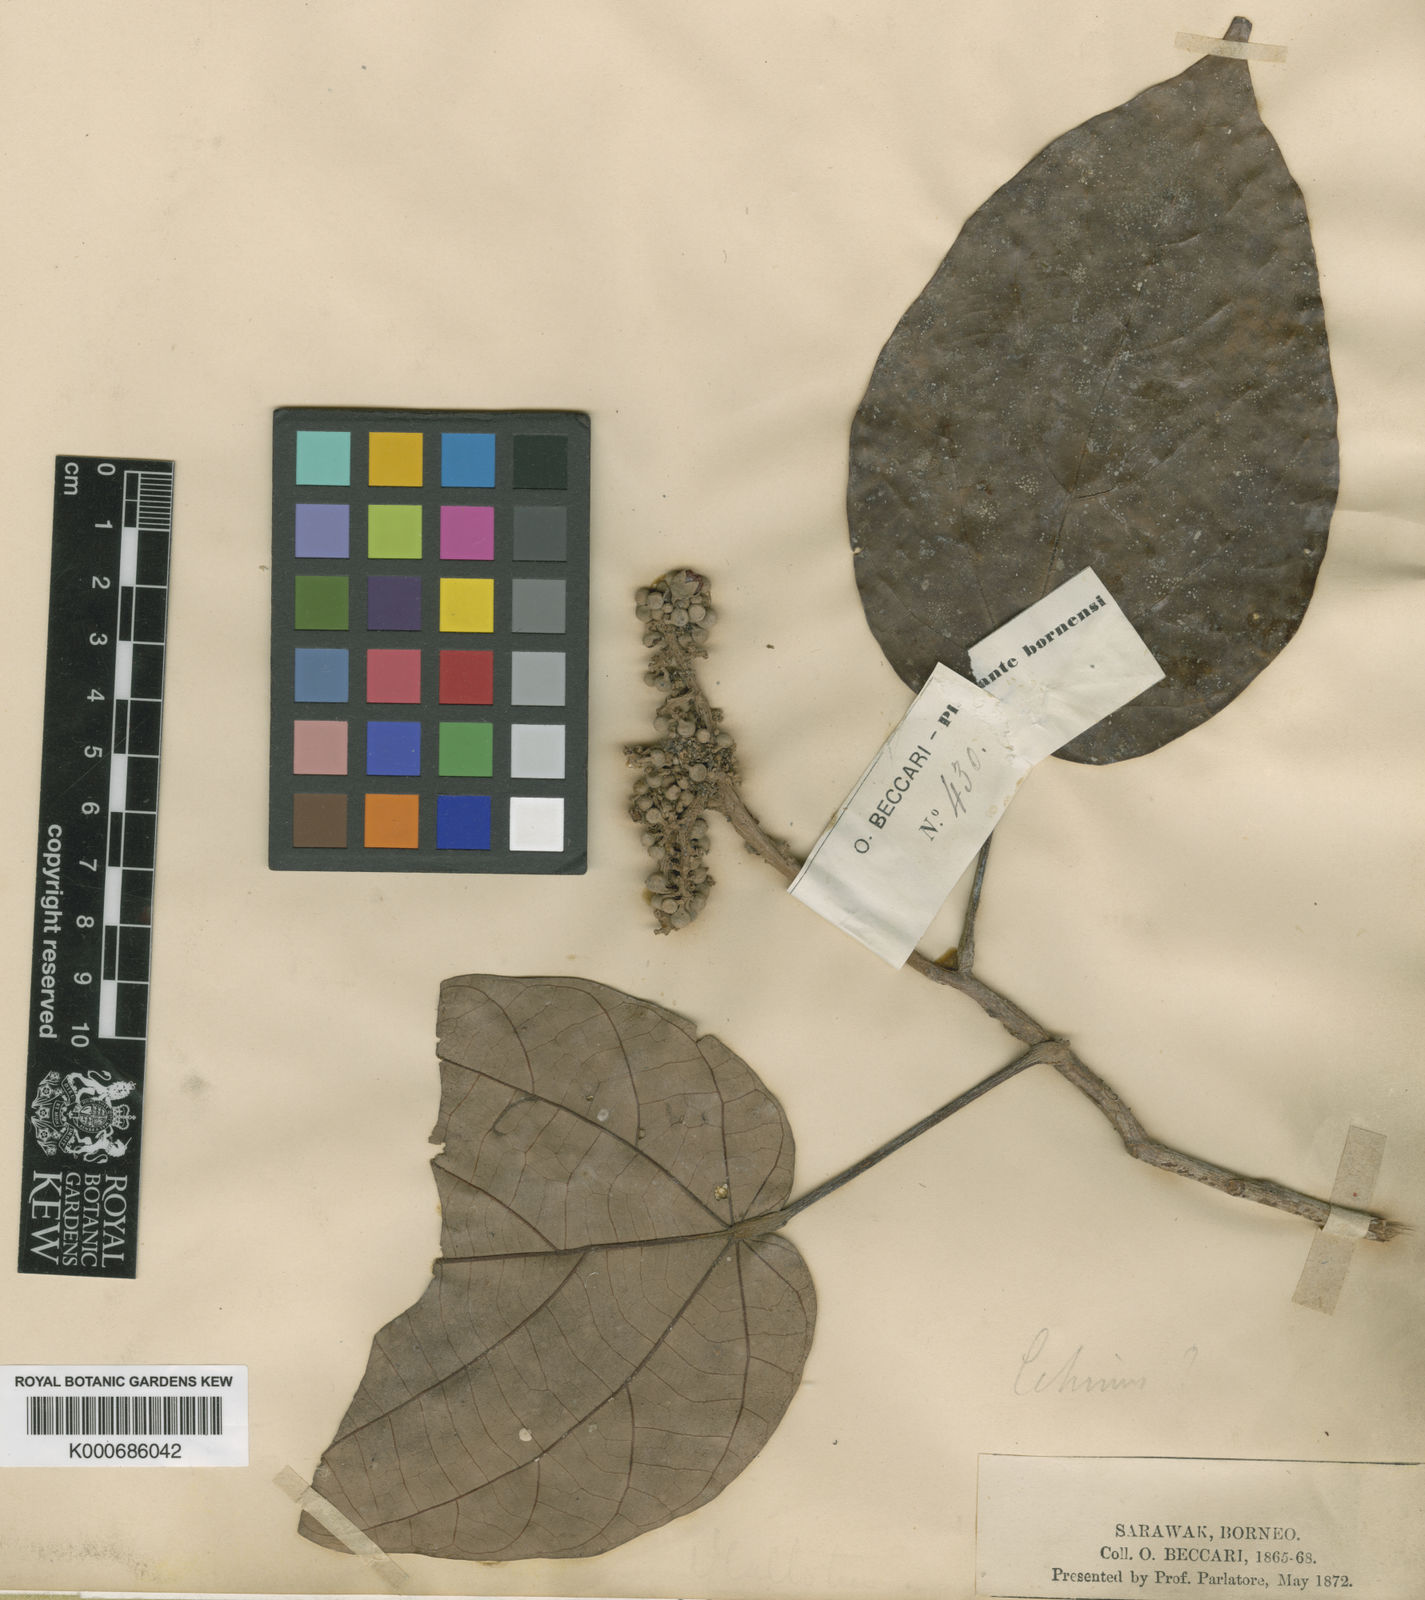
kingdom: Plantae
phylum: Tracheophyta
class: Magnoliopsida
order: Malvales
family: Malvaceae
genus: Brownlowia
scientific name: Brownlowia
